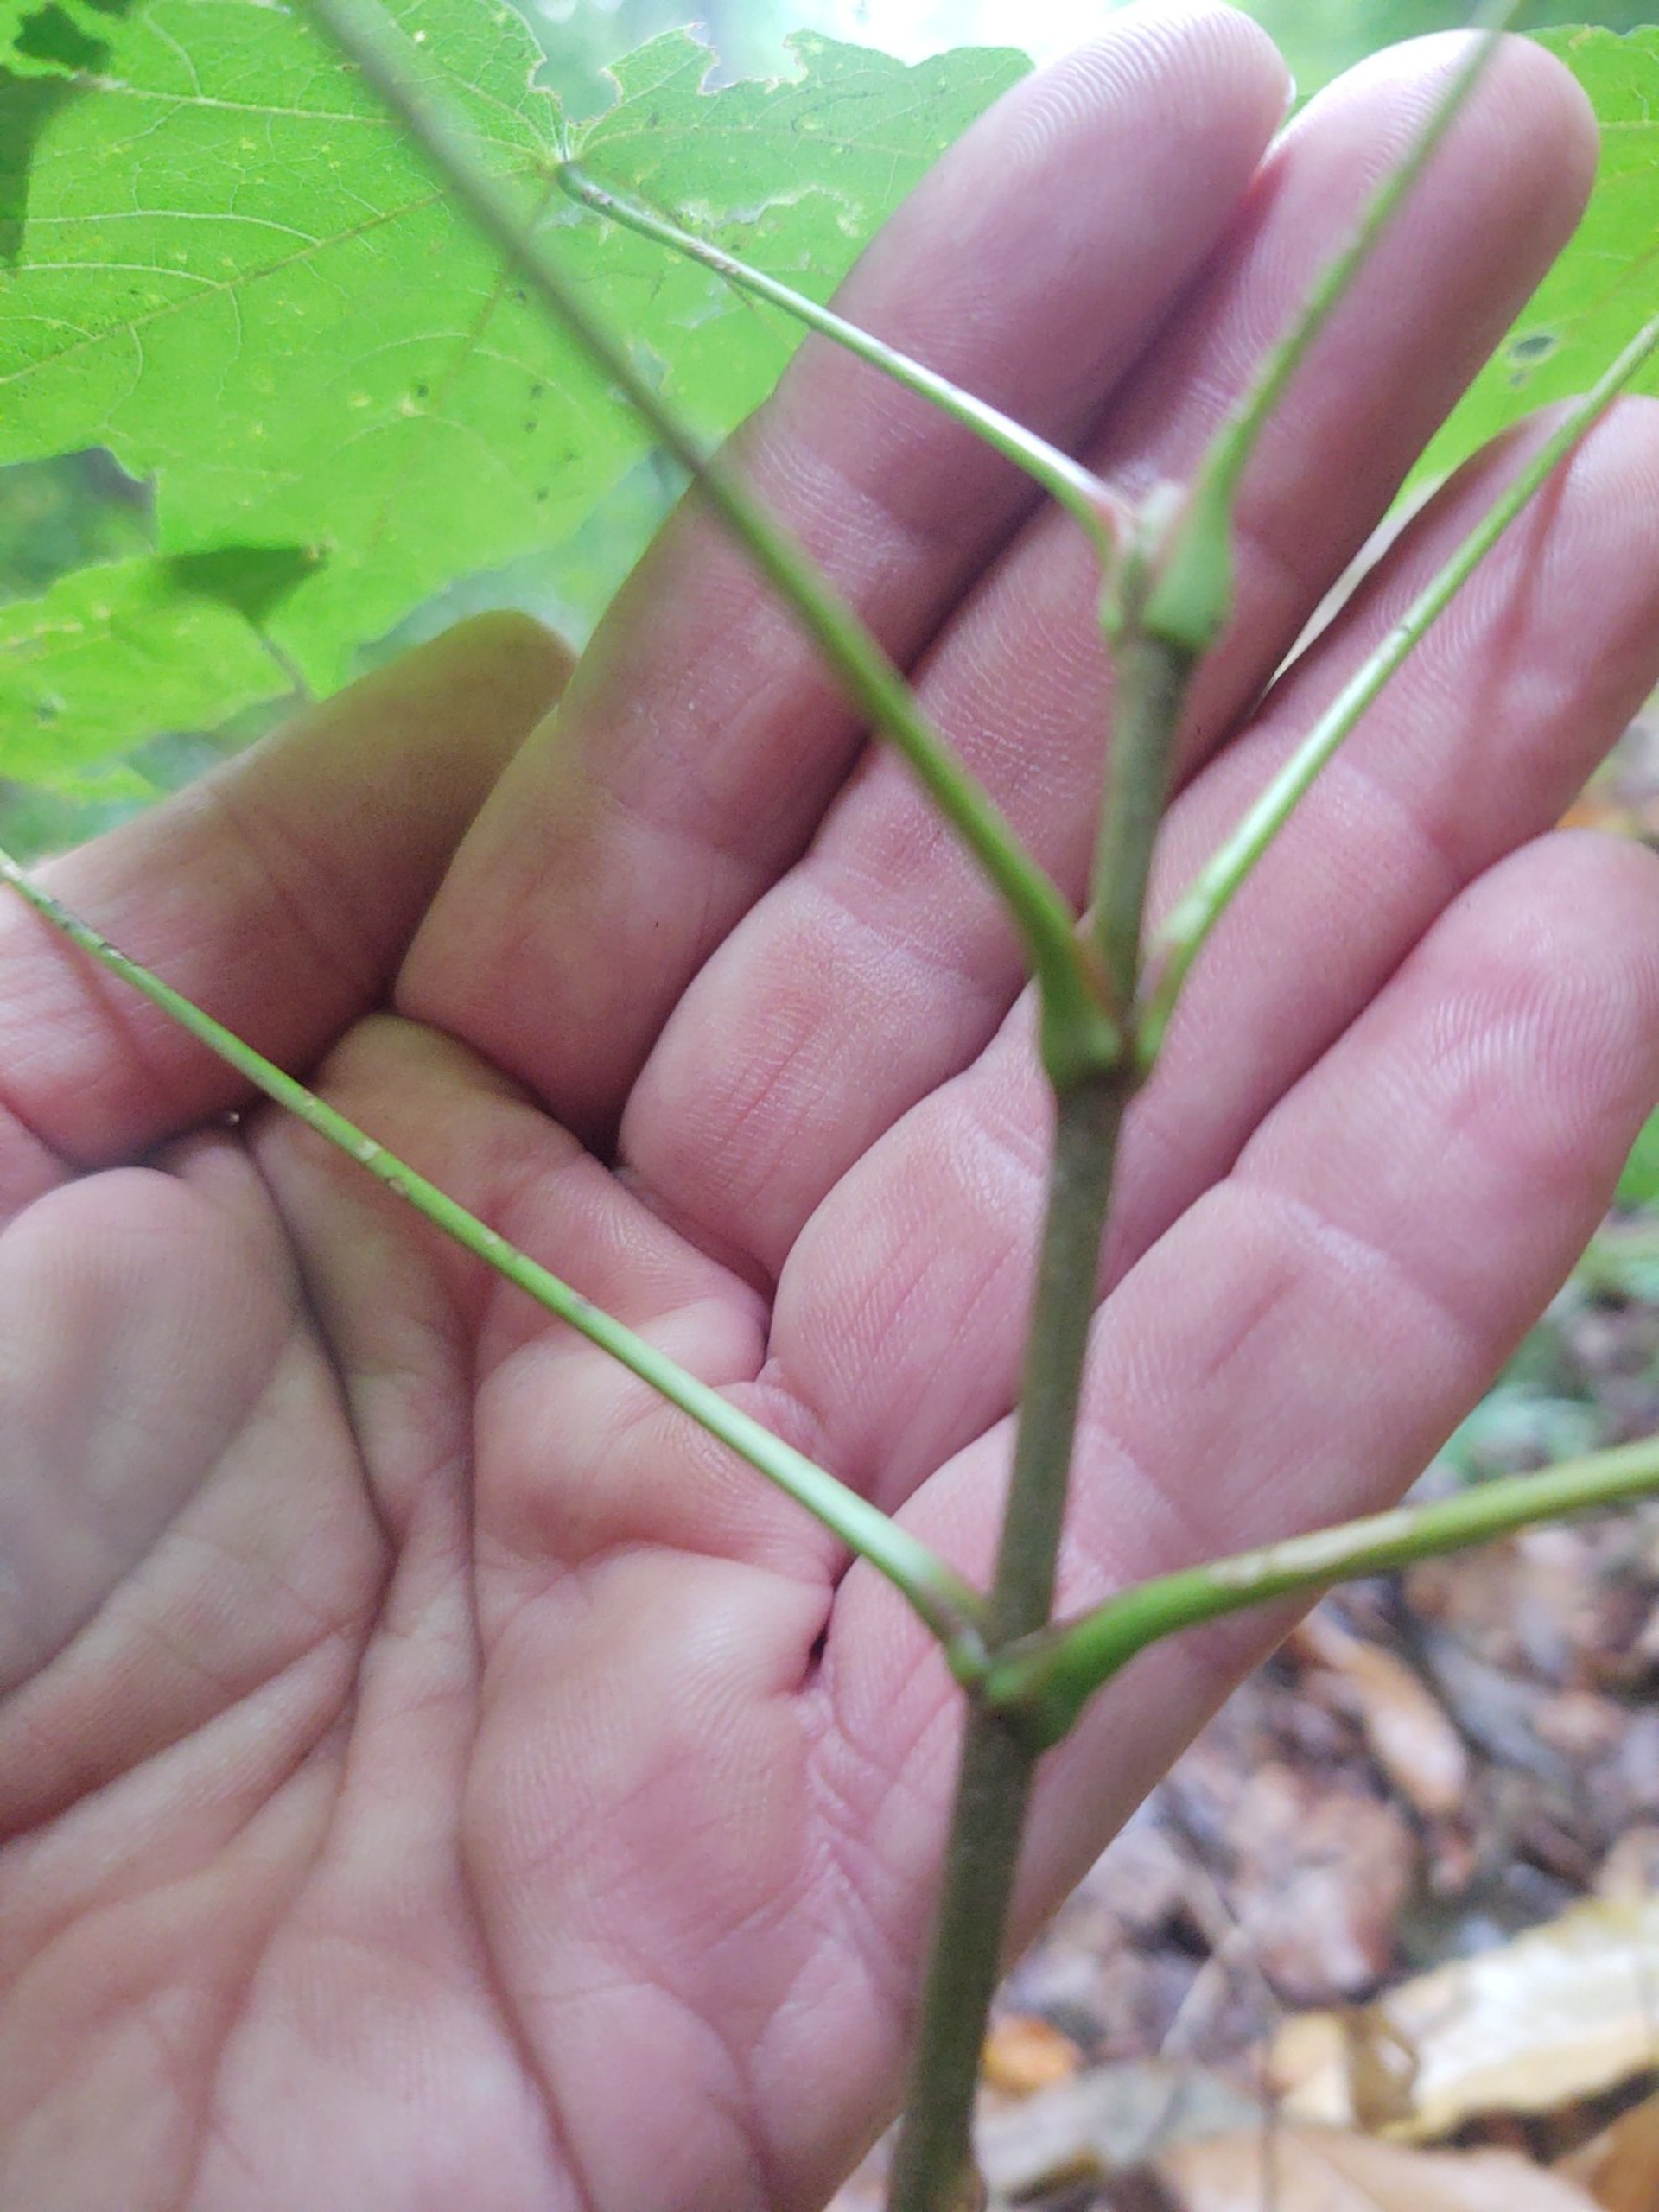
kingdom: Plantae
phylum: Tracheophyta
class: Magnoliopsida
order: Sapindales
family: Sapindaceae
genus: Acer
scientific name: Acer platanoides
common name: Spids-løn
